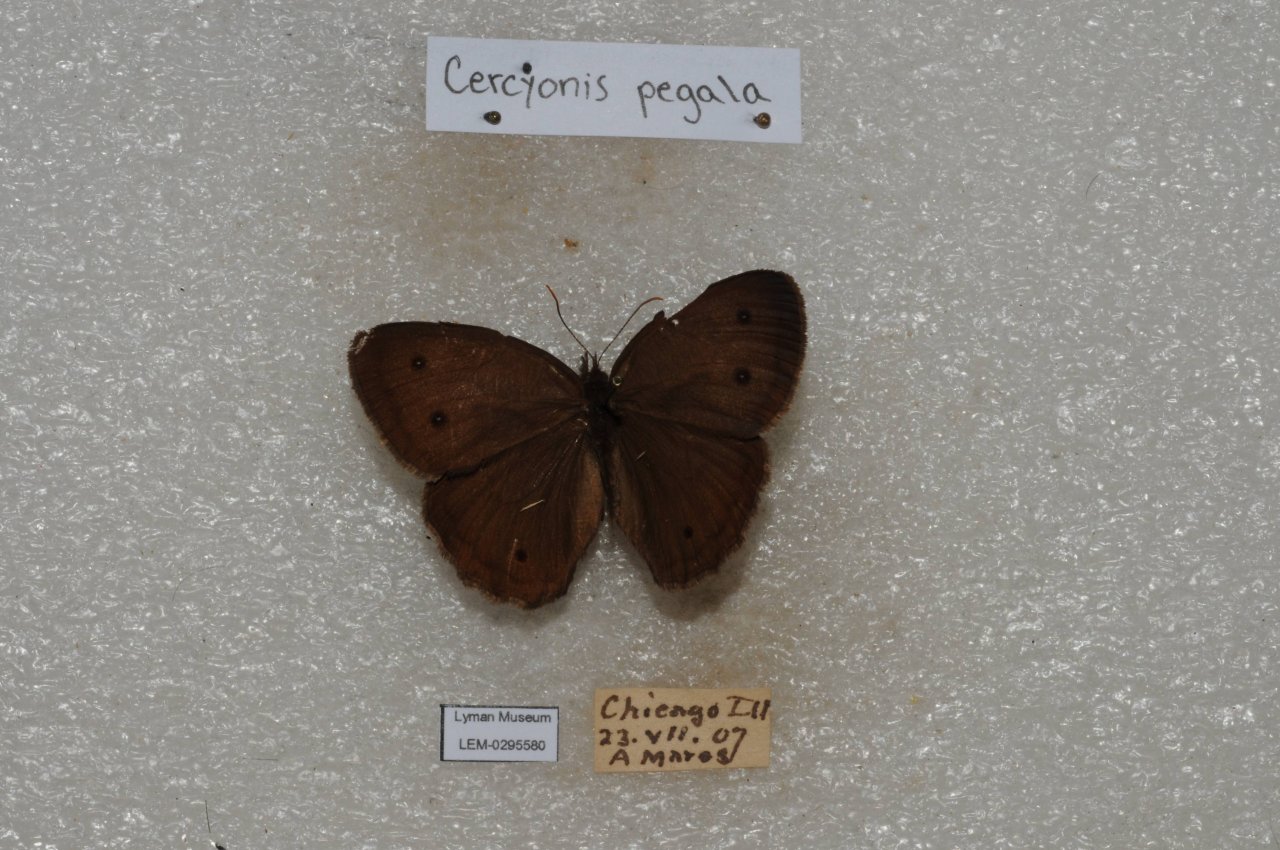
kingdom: Animalia
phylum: Arthropoda
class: Insecta
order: Lepidoptera
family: Nymphalidae
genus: Cercyonis
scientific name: Cercyonis pegala
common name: Common Wood-Nymph
